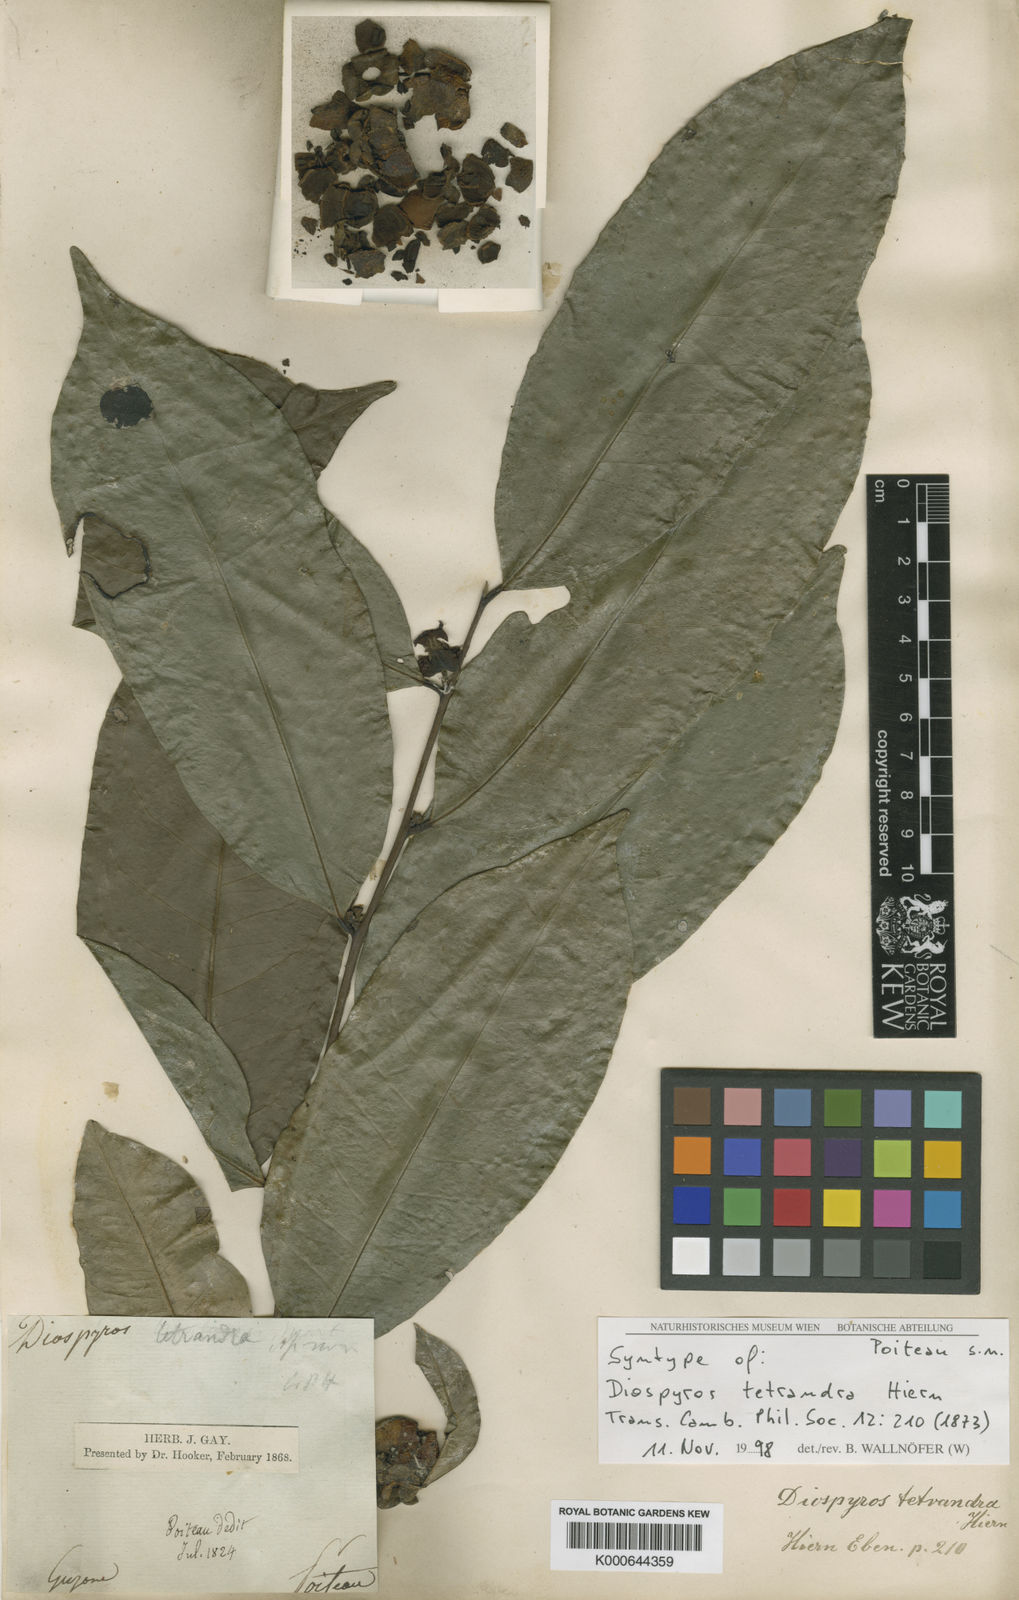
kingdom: Plantae
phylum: Tracheophyta
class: Magnoliopsida
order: Ericales
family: Ebenaceae
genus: Diospyros
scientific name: Diospyros tetrandra
